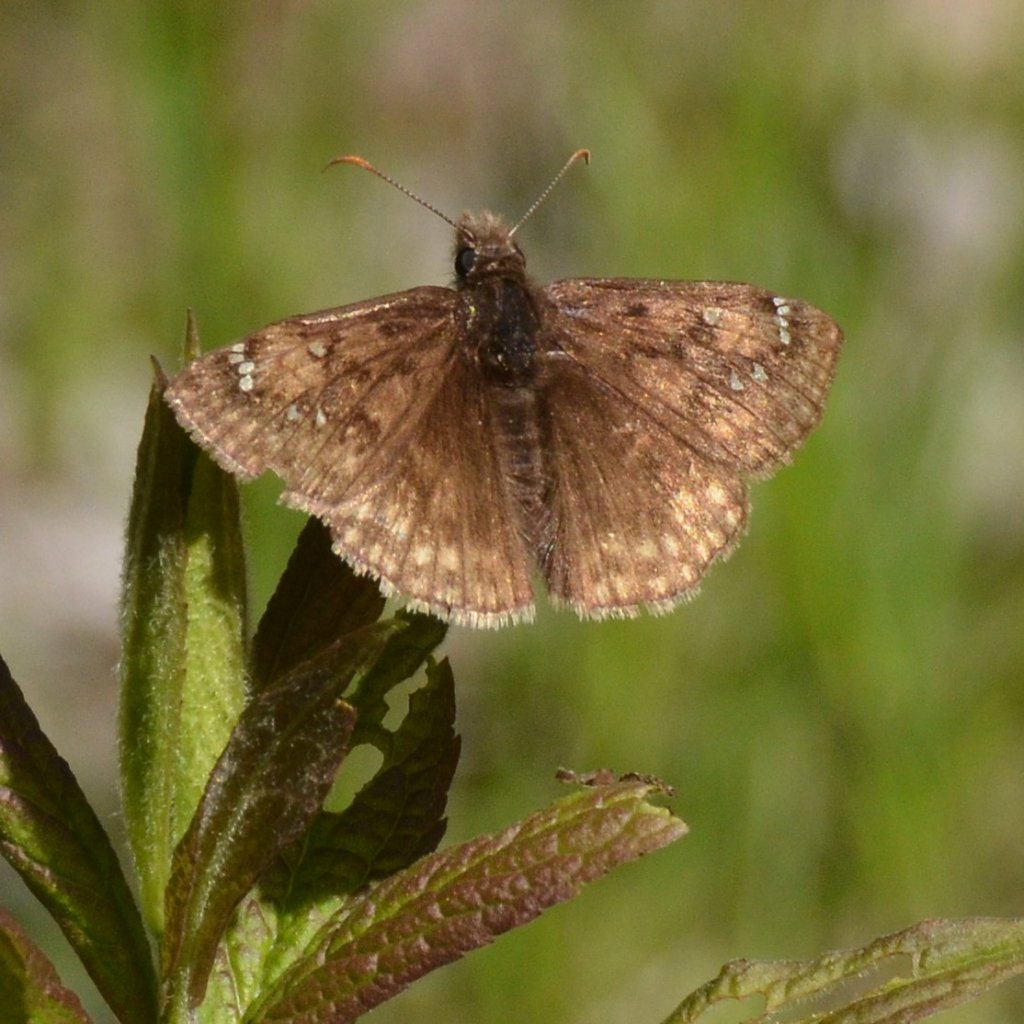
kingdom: Animalia
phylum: Arthropoda
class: Insecta
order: Lepidoptera
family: Hesperiidae
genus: Gesta
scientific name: Gesta
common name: Juvenal's Duskywing
